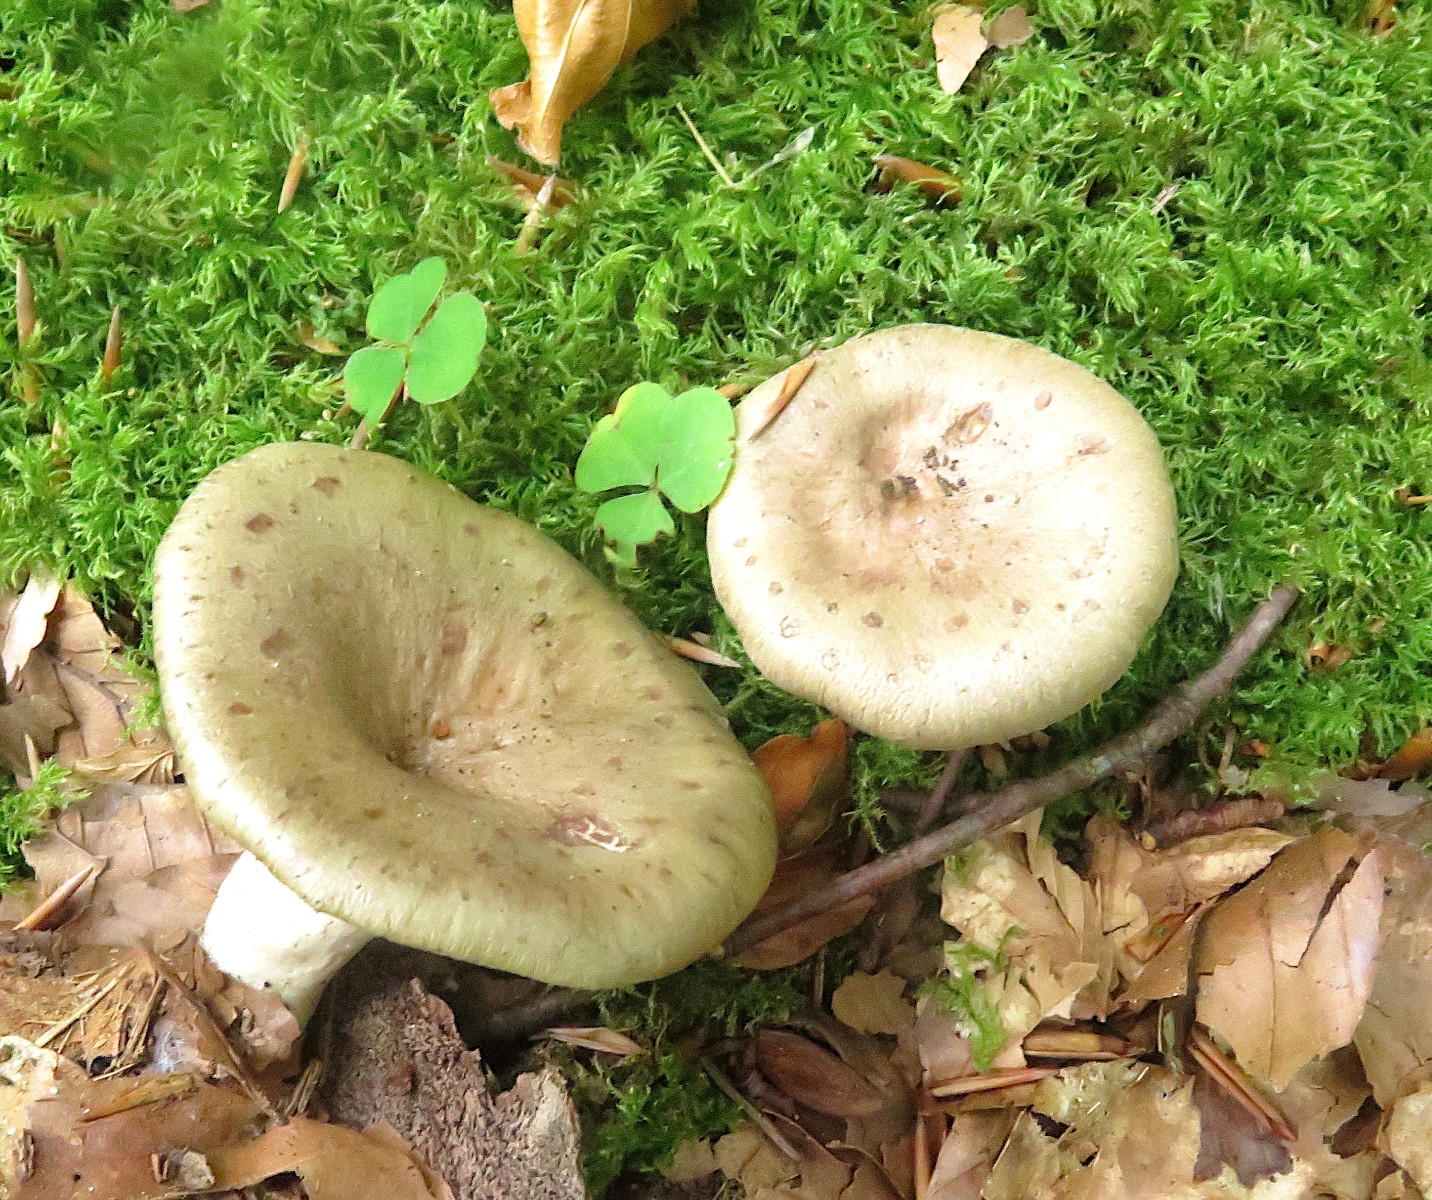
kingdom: Fungi
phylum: Basidiomycota
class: Agaricomycetes
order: Russulales
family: Russulaceae
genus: Lactarius
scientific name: Lactarius blennius
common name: dråbeplettet mælkehat
